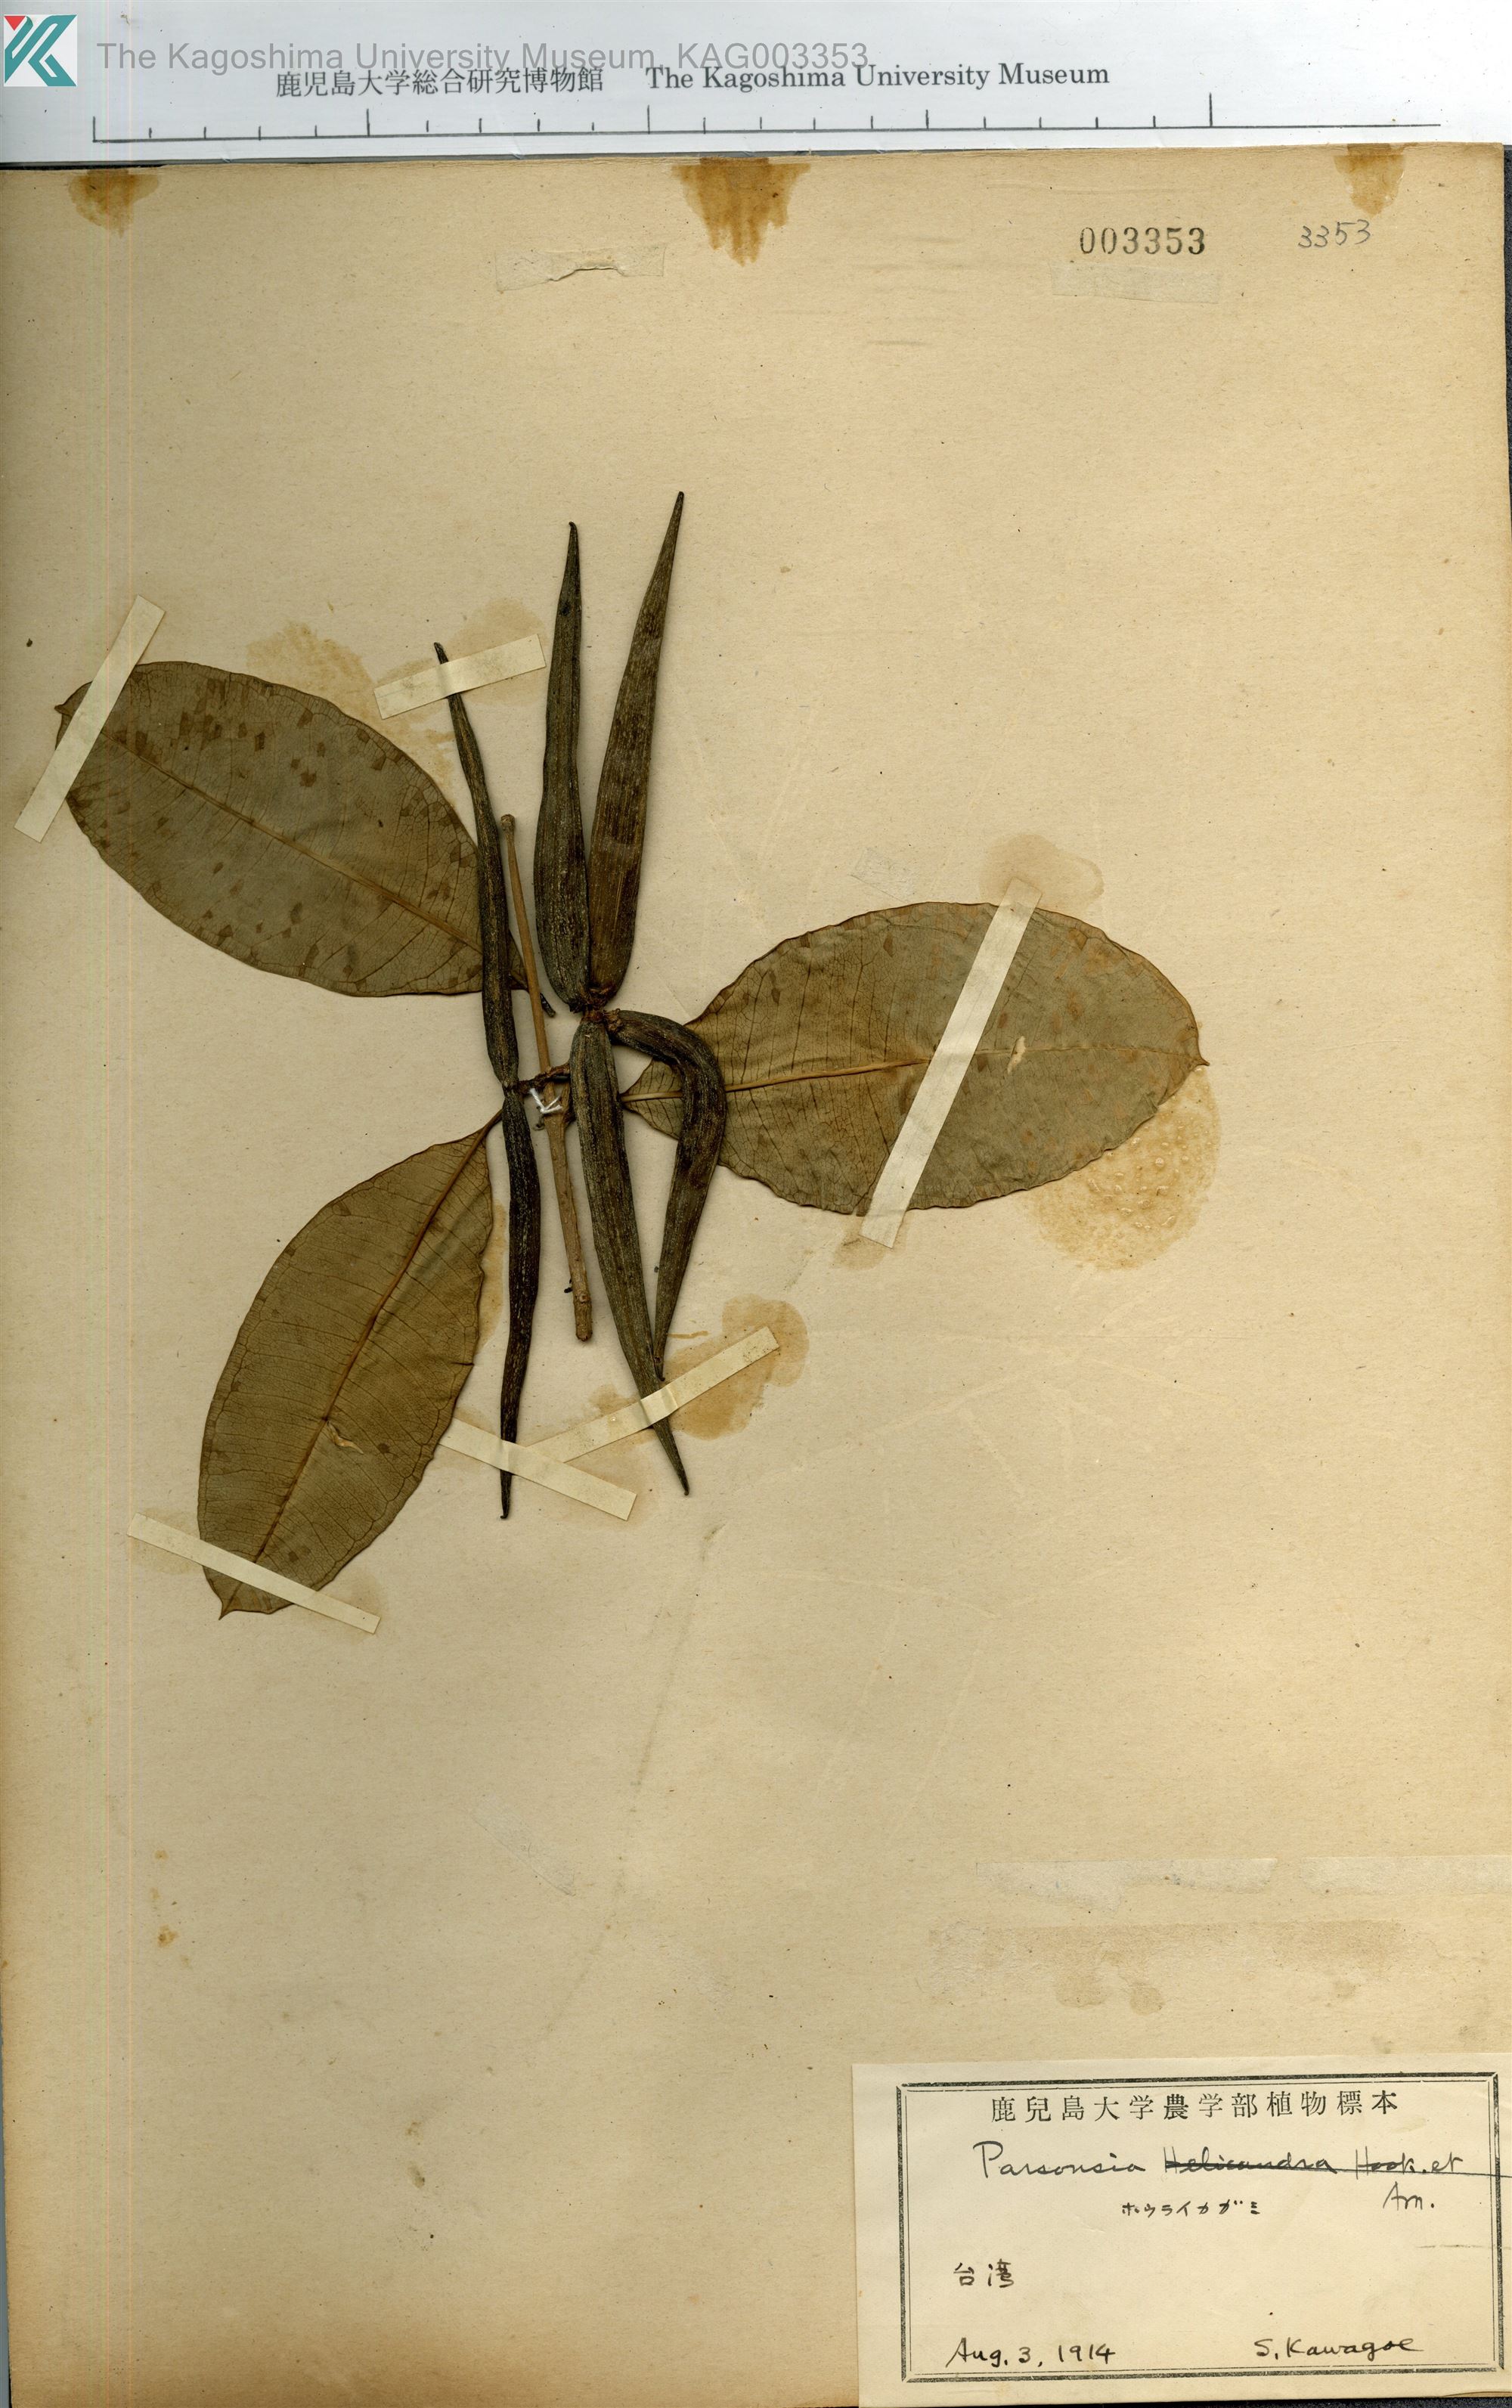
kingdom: Plantae
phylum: Tracheophyta
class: Magnoliopsida
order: Gentianales
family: Apocynaceae
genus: Parsonsia
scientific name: Parsonsia
